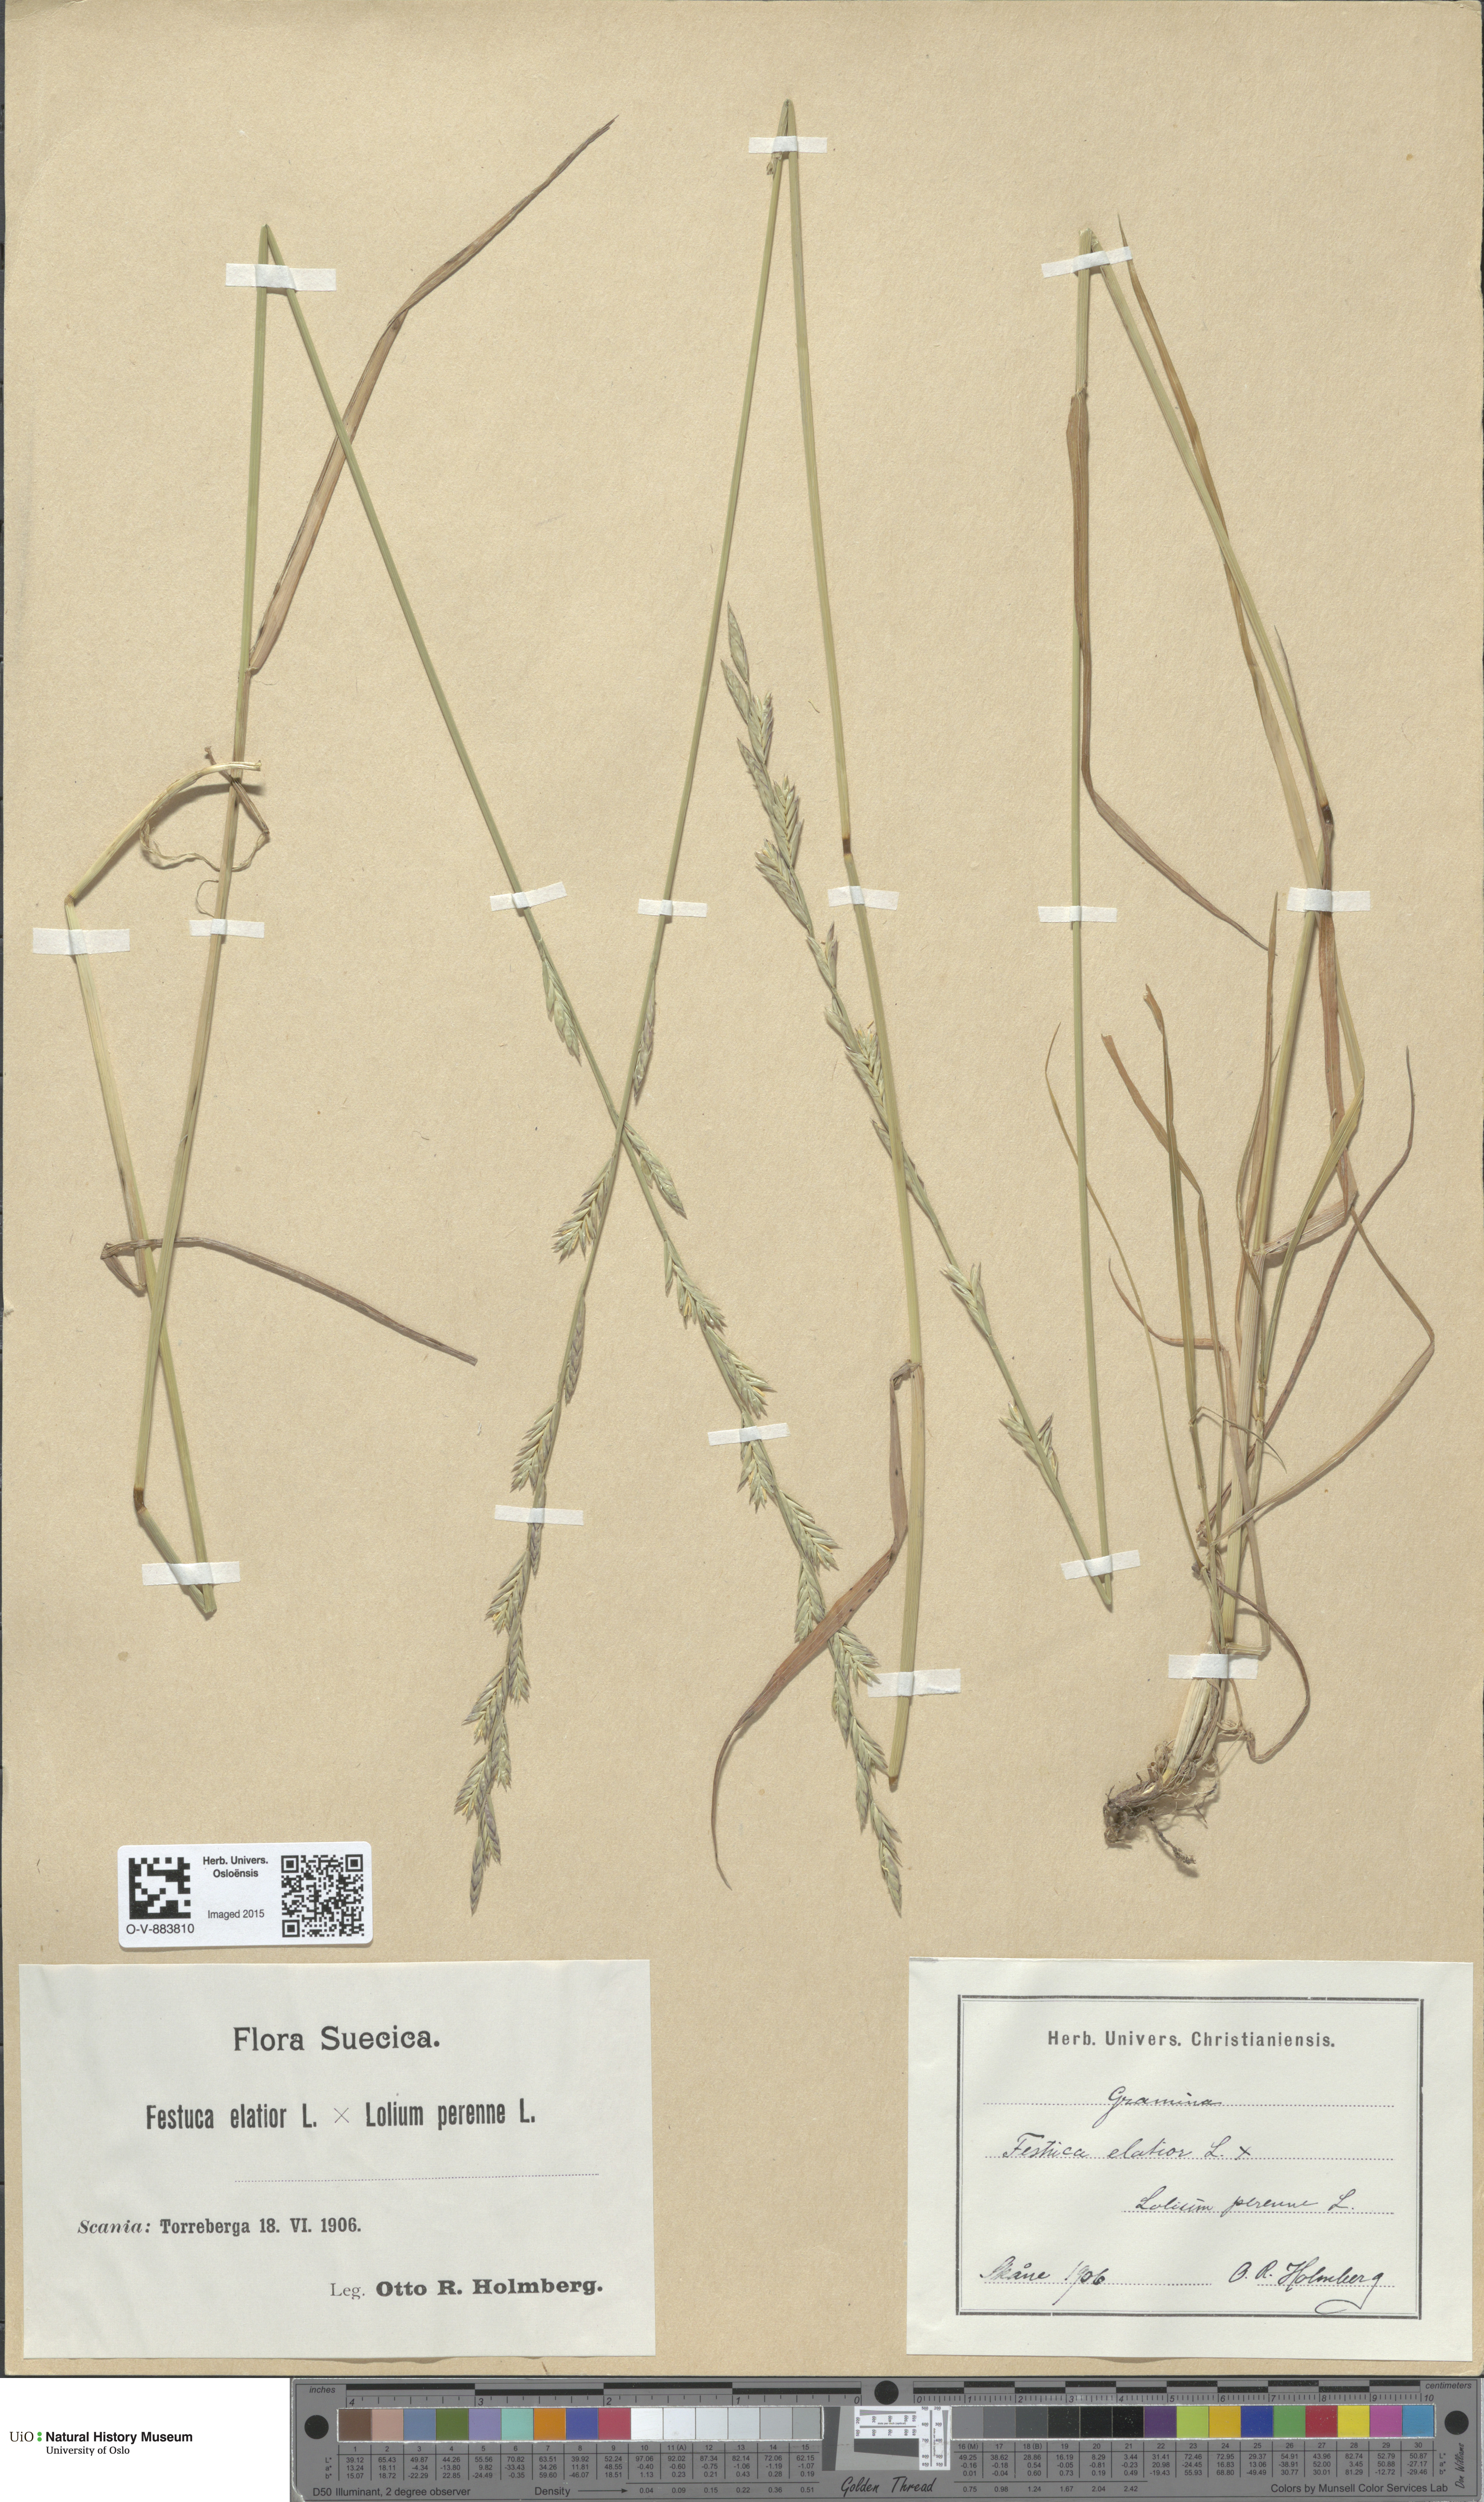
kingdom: Plantae
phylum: Tracheophyta
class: Liliopsida
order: Poales
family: Poaceae
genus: Lolium
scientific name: Lolium
